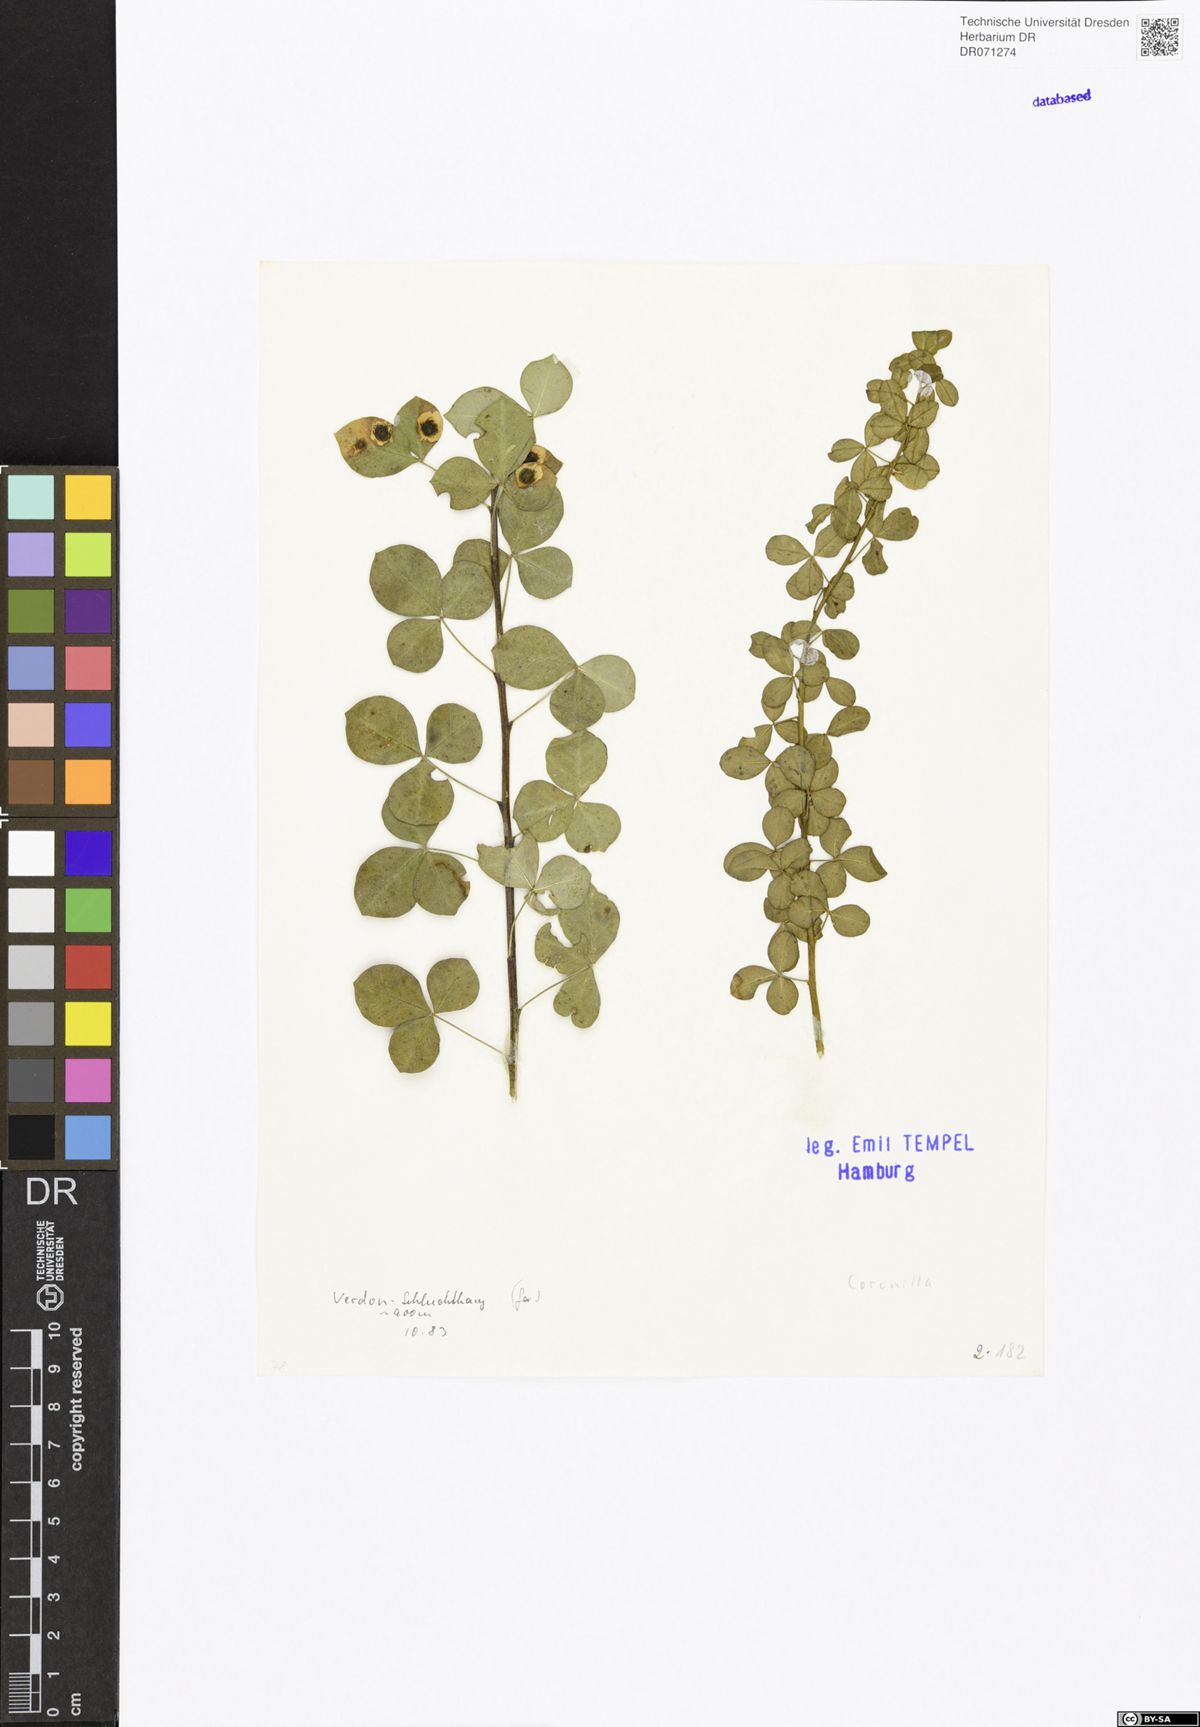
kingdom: Plantae
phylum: Tracheophyta
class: Magnoliopsida
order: Fabales
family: Fabaceae
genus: Coronilla
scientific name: Coronilla
